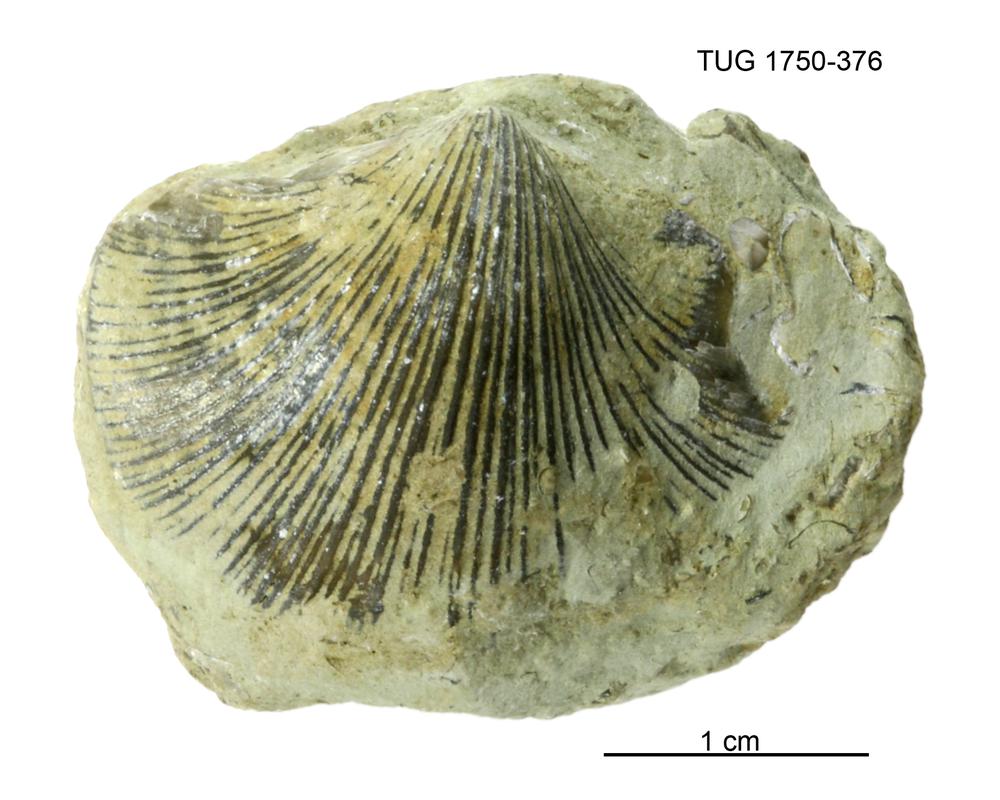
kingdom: Animalia
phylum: Brachiopoda
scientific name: Brachiopoda
